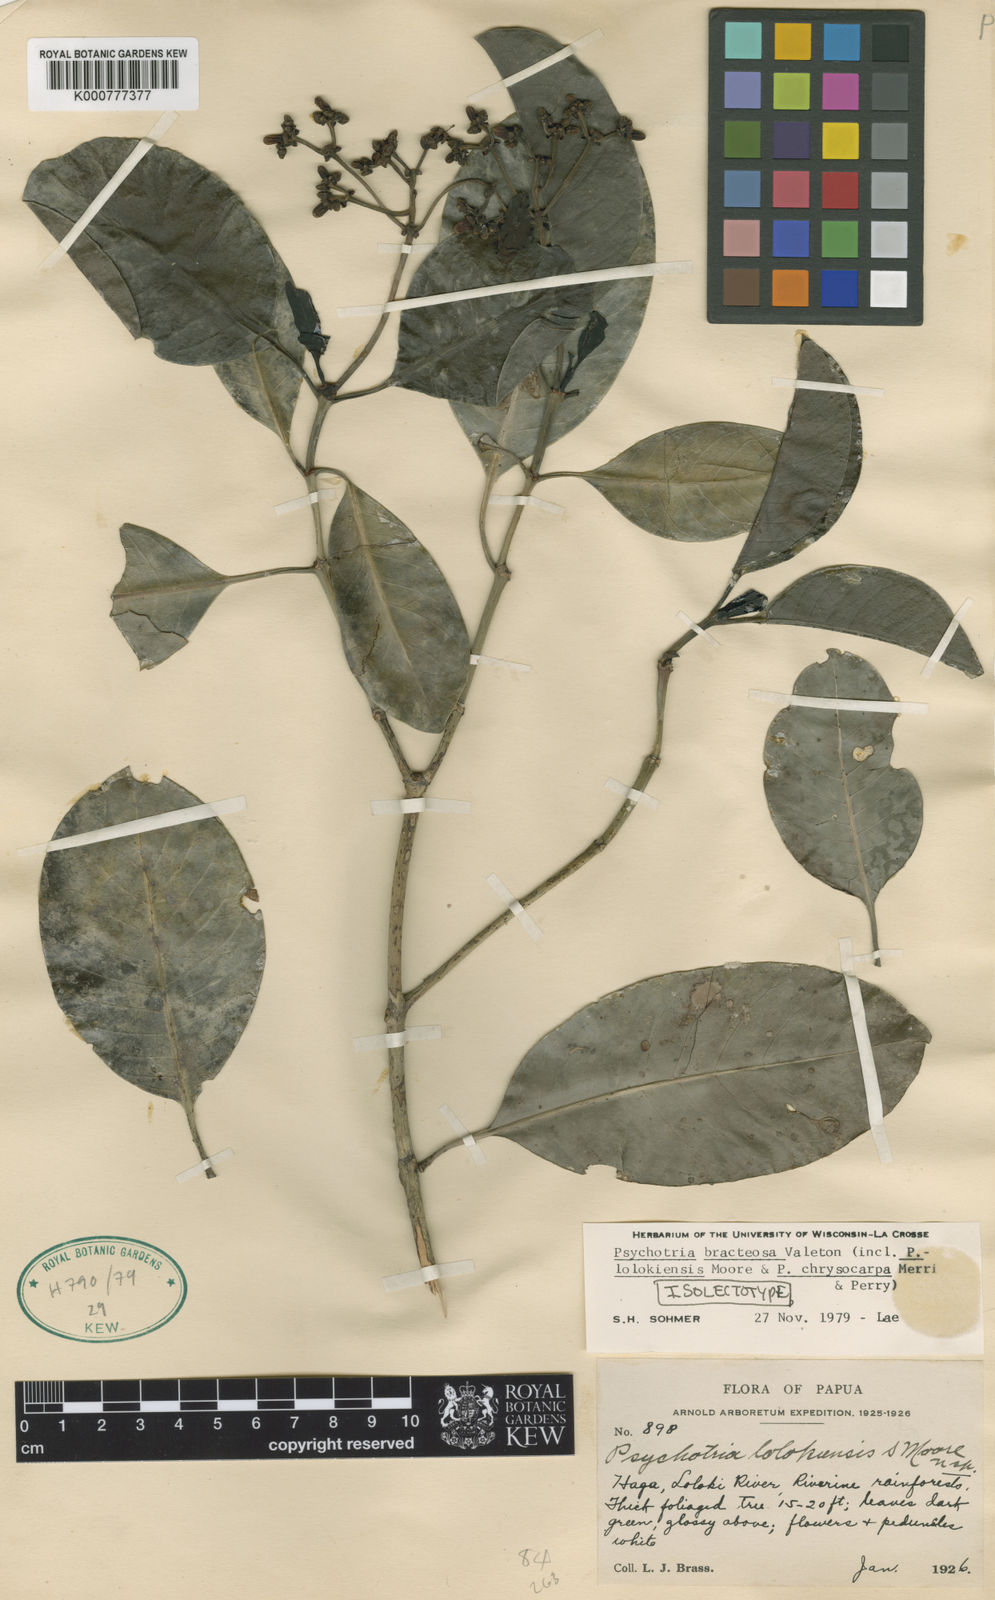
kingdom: Plantae
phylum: Tracheophyta
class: Magnoliopsida
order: Gentianales
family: Rubiaceae
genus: Psychotria
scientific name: Psychotria lolokiensis
